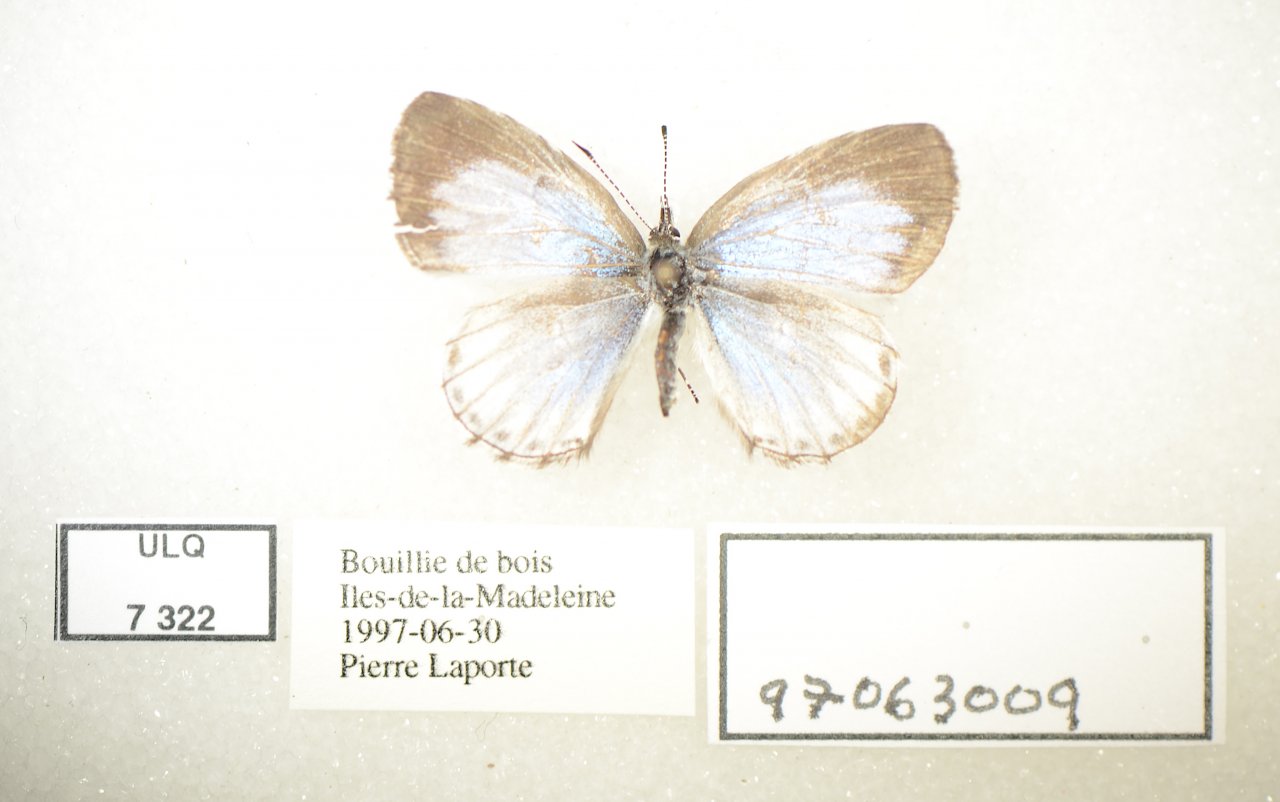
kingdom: Animalia
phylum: Arthropoda
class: Insecta
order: Lepidoptera
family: Lycaenidae
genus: Celastrina
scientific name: Celastrina lucia
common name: Northern Spring Azure
